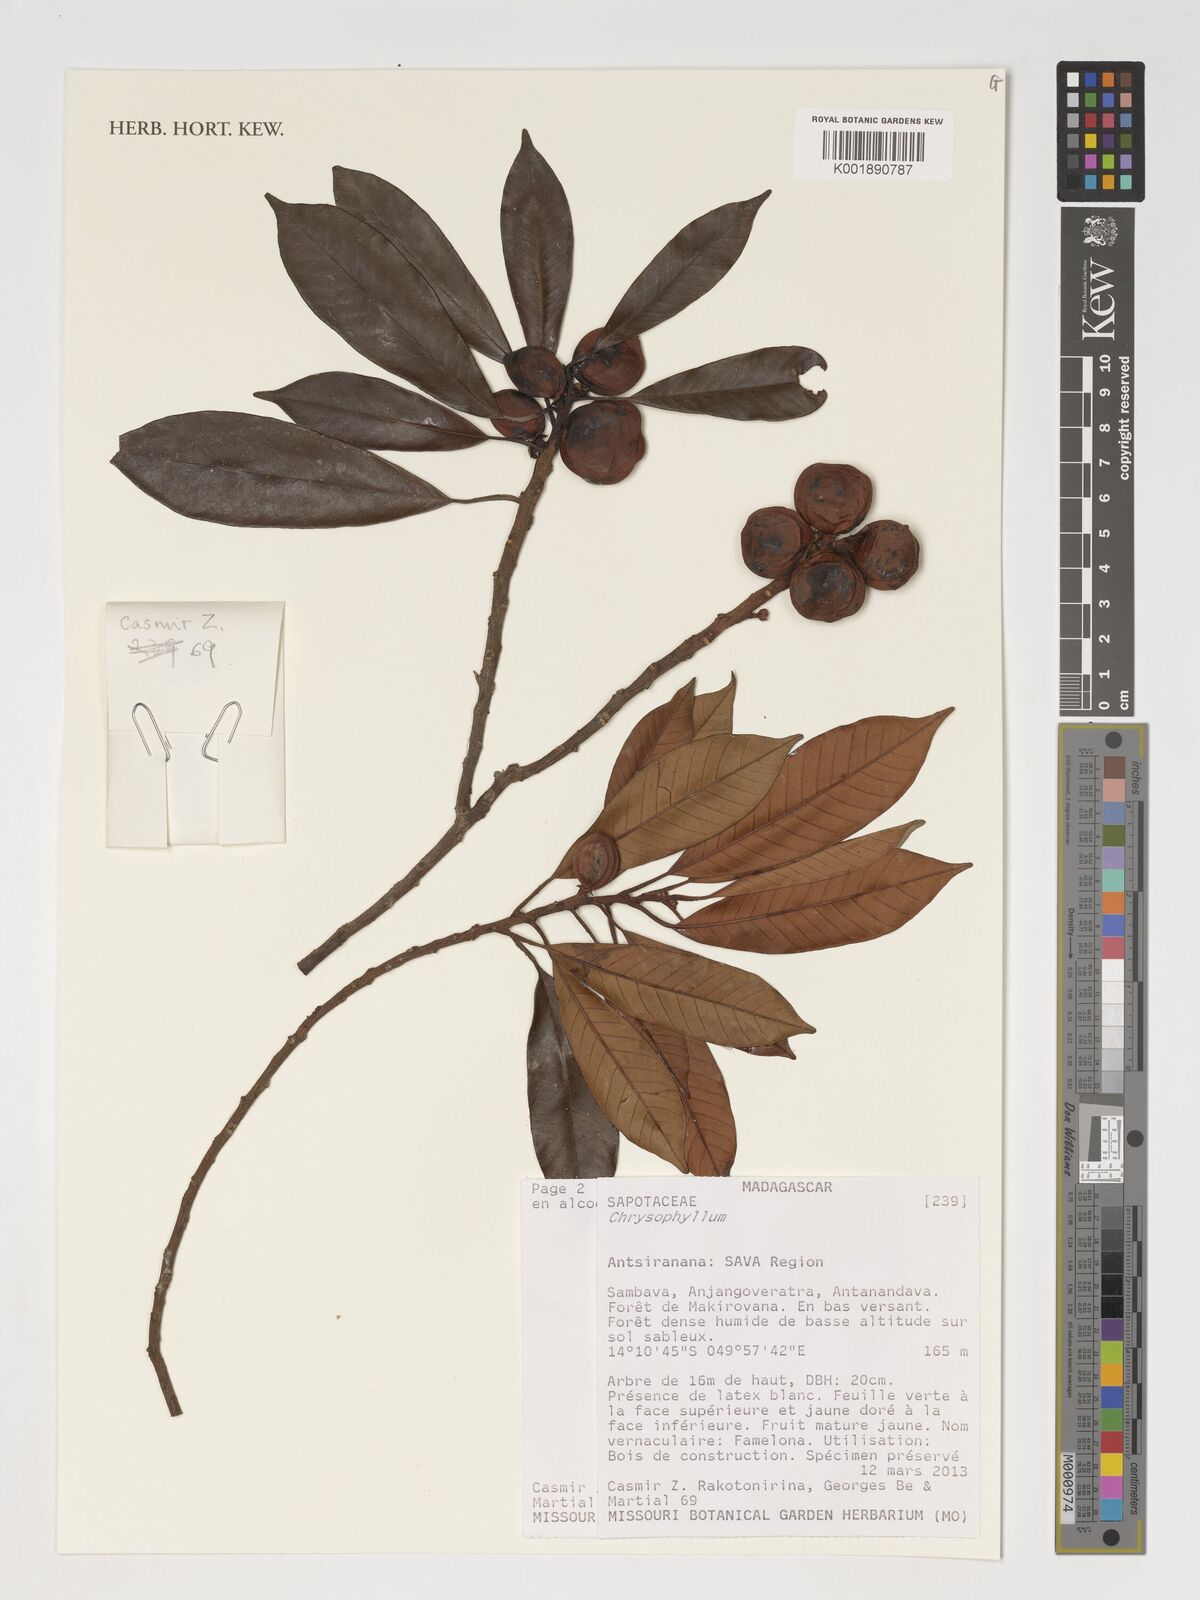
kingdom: Plantae
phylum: Tracheophyta
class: Magnoliopsida
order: Ericales
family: Sapotaceae
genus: Chrysophyllum
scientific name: Chrysophyllum
